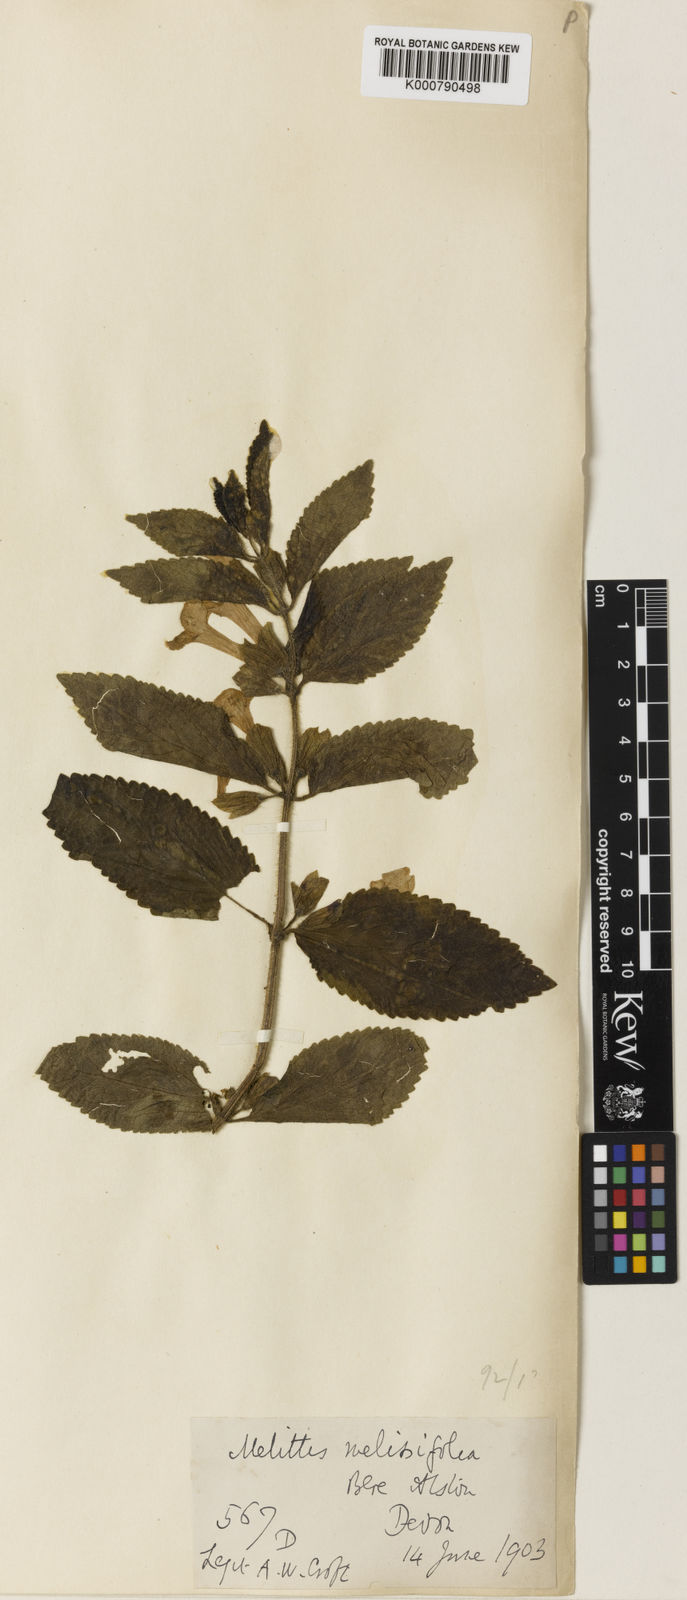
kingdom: Plantae
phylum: Tracheophyta
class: Magnoliopsida
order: Lamiales
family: Lamiaceae
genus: Melittis
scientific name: Melittis melissophyllum
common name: Bastard balm
